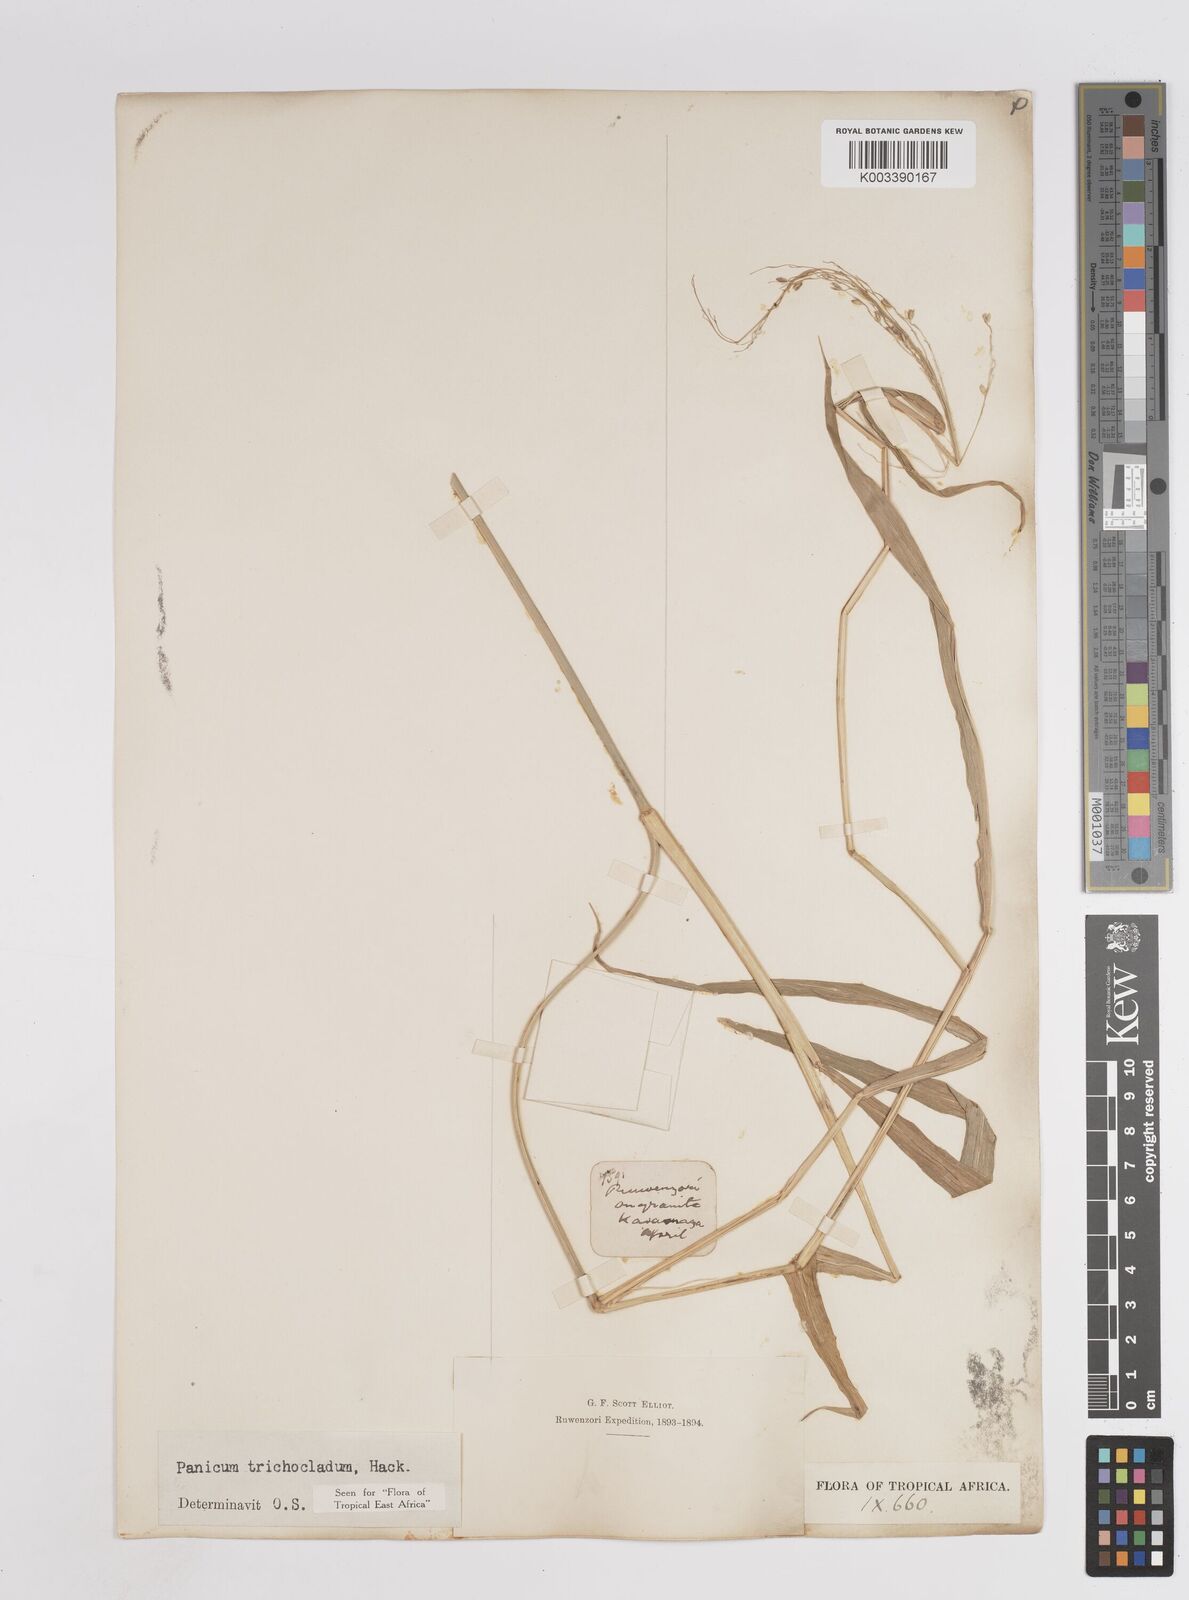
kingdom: Plantae
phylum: Tracheophyta
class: Liliopsida
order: Poales
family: Poaceae
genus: Panicum
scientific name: Panicum trichocladum
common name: Donkey grass
